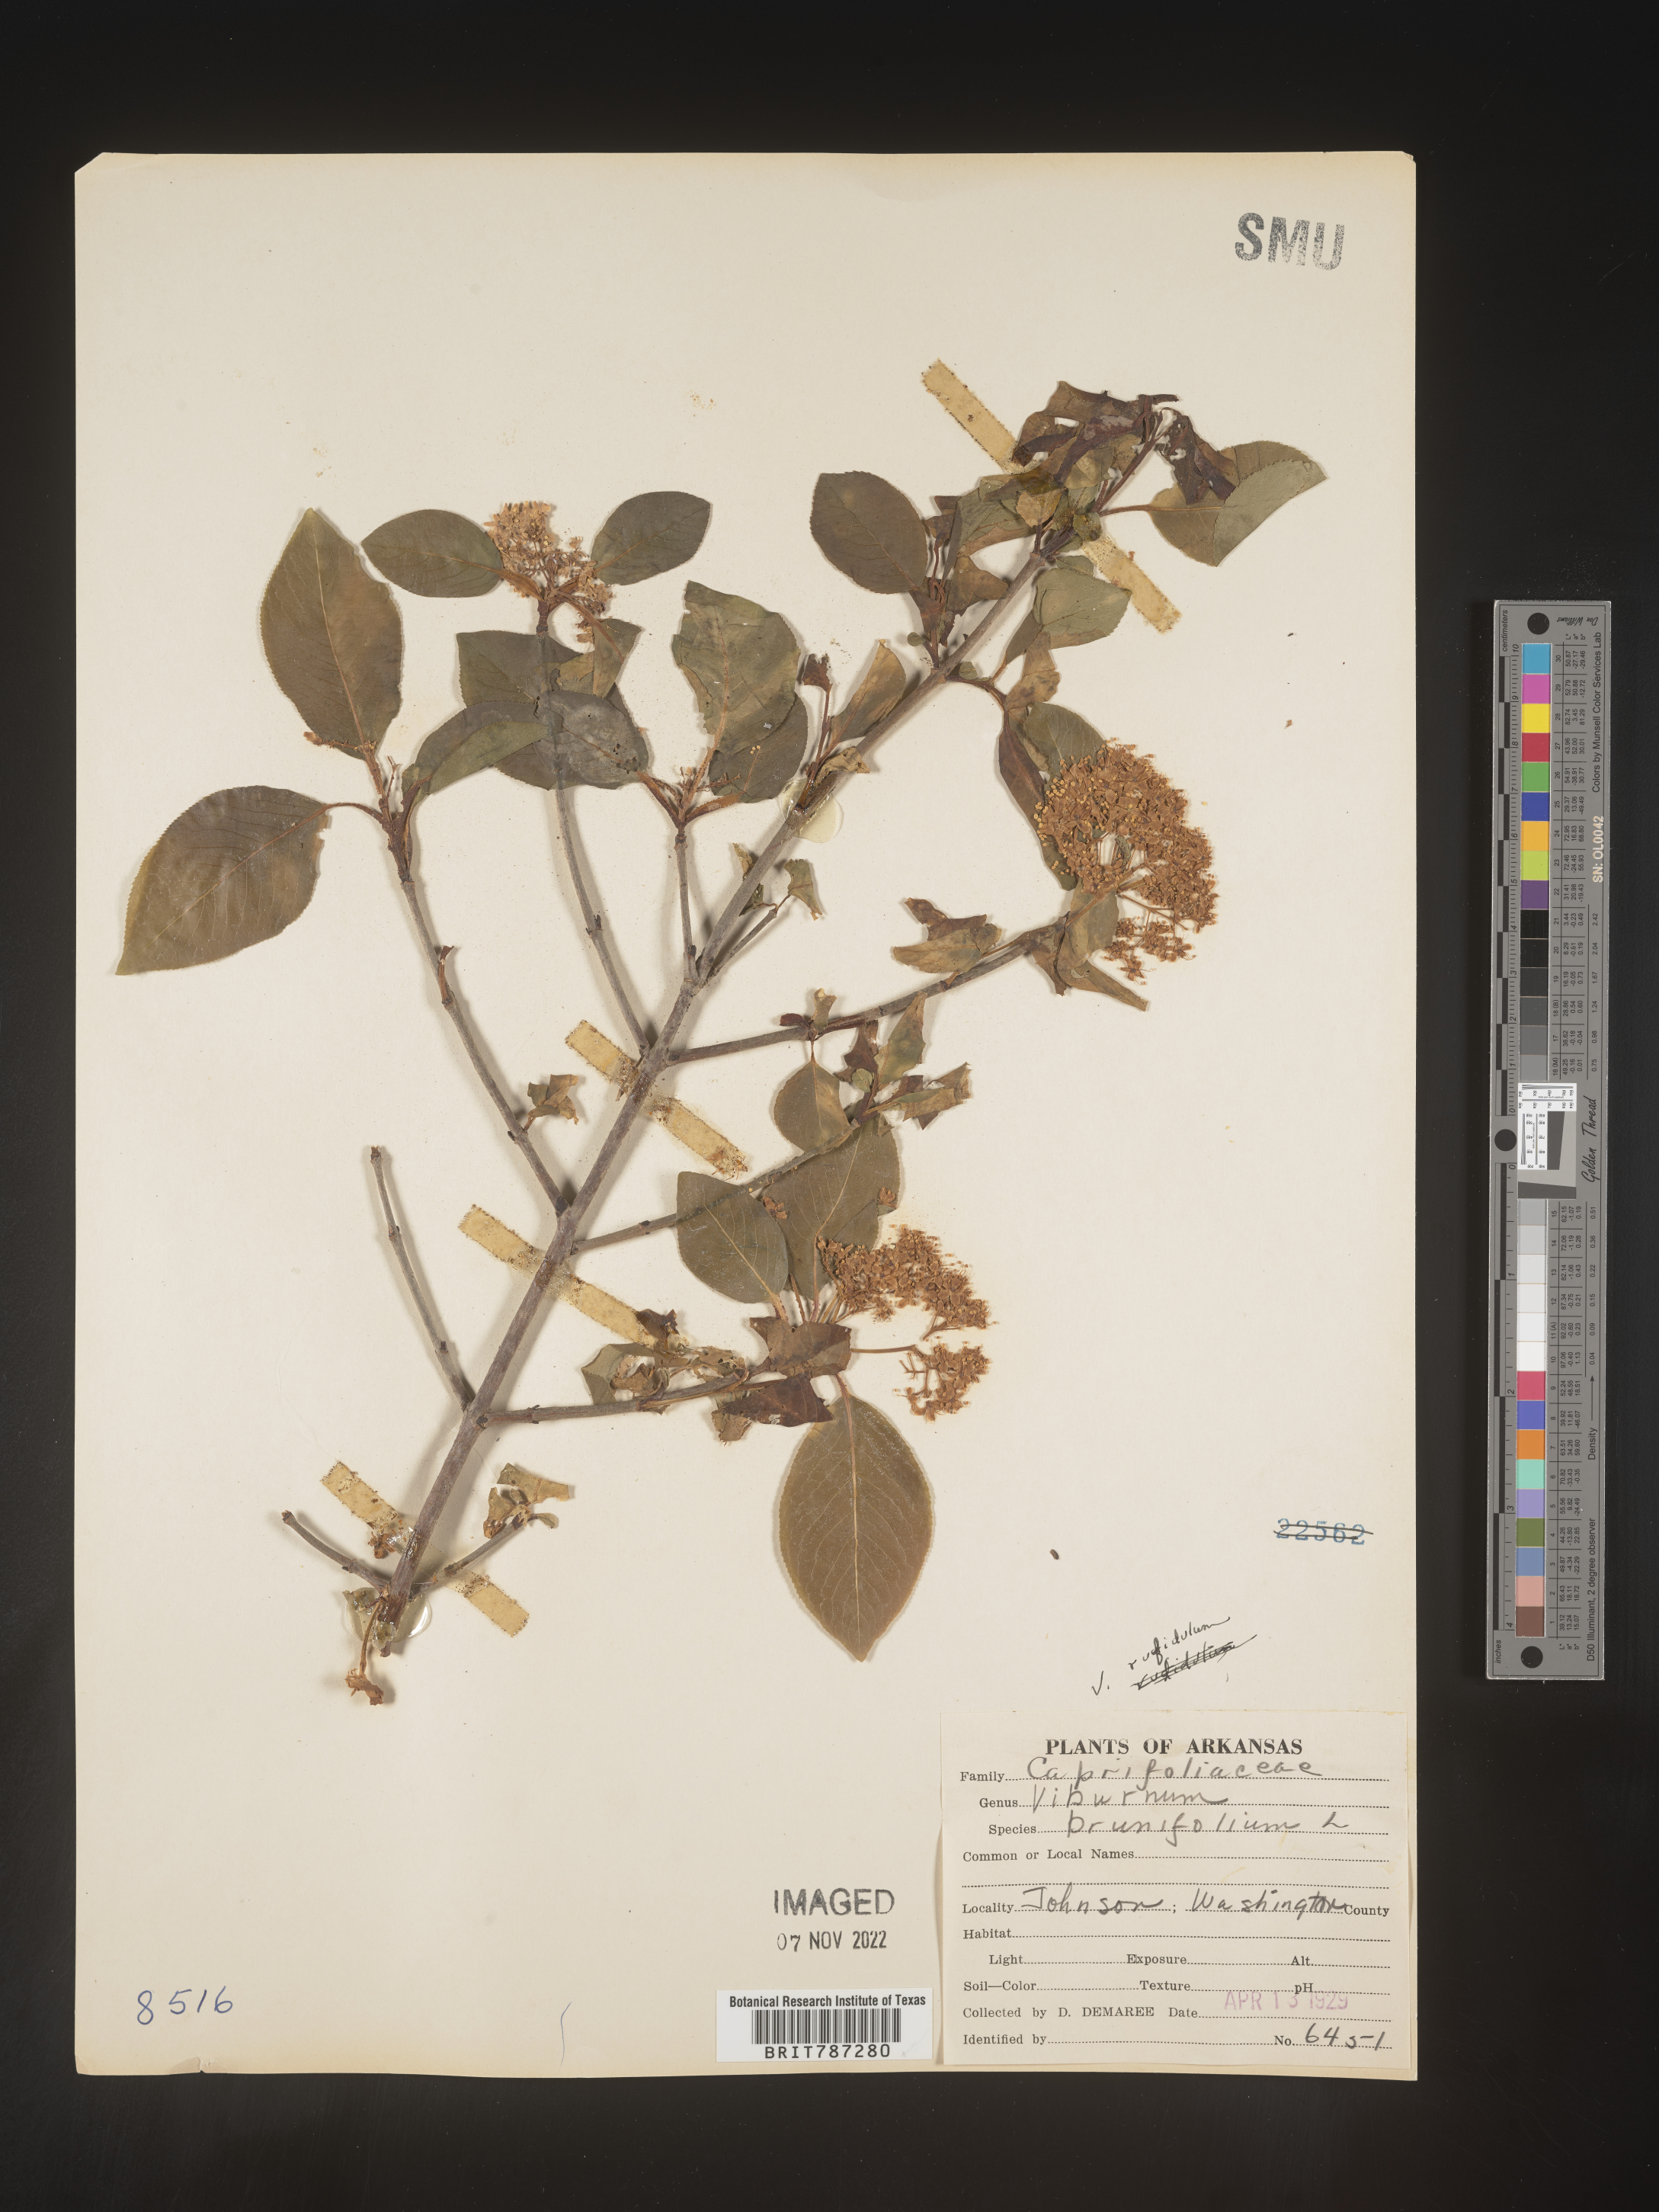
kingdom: Plantae
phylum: Tracheophyta
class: Magnoliopsida
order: Dipsacales
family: Viburnaceae
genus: Viburnum
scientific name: Viburnum rufidulum
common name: Blue haw
